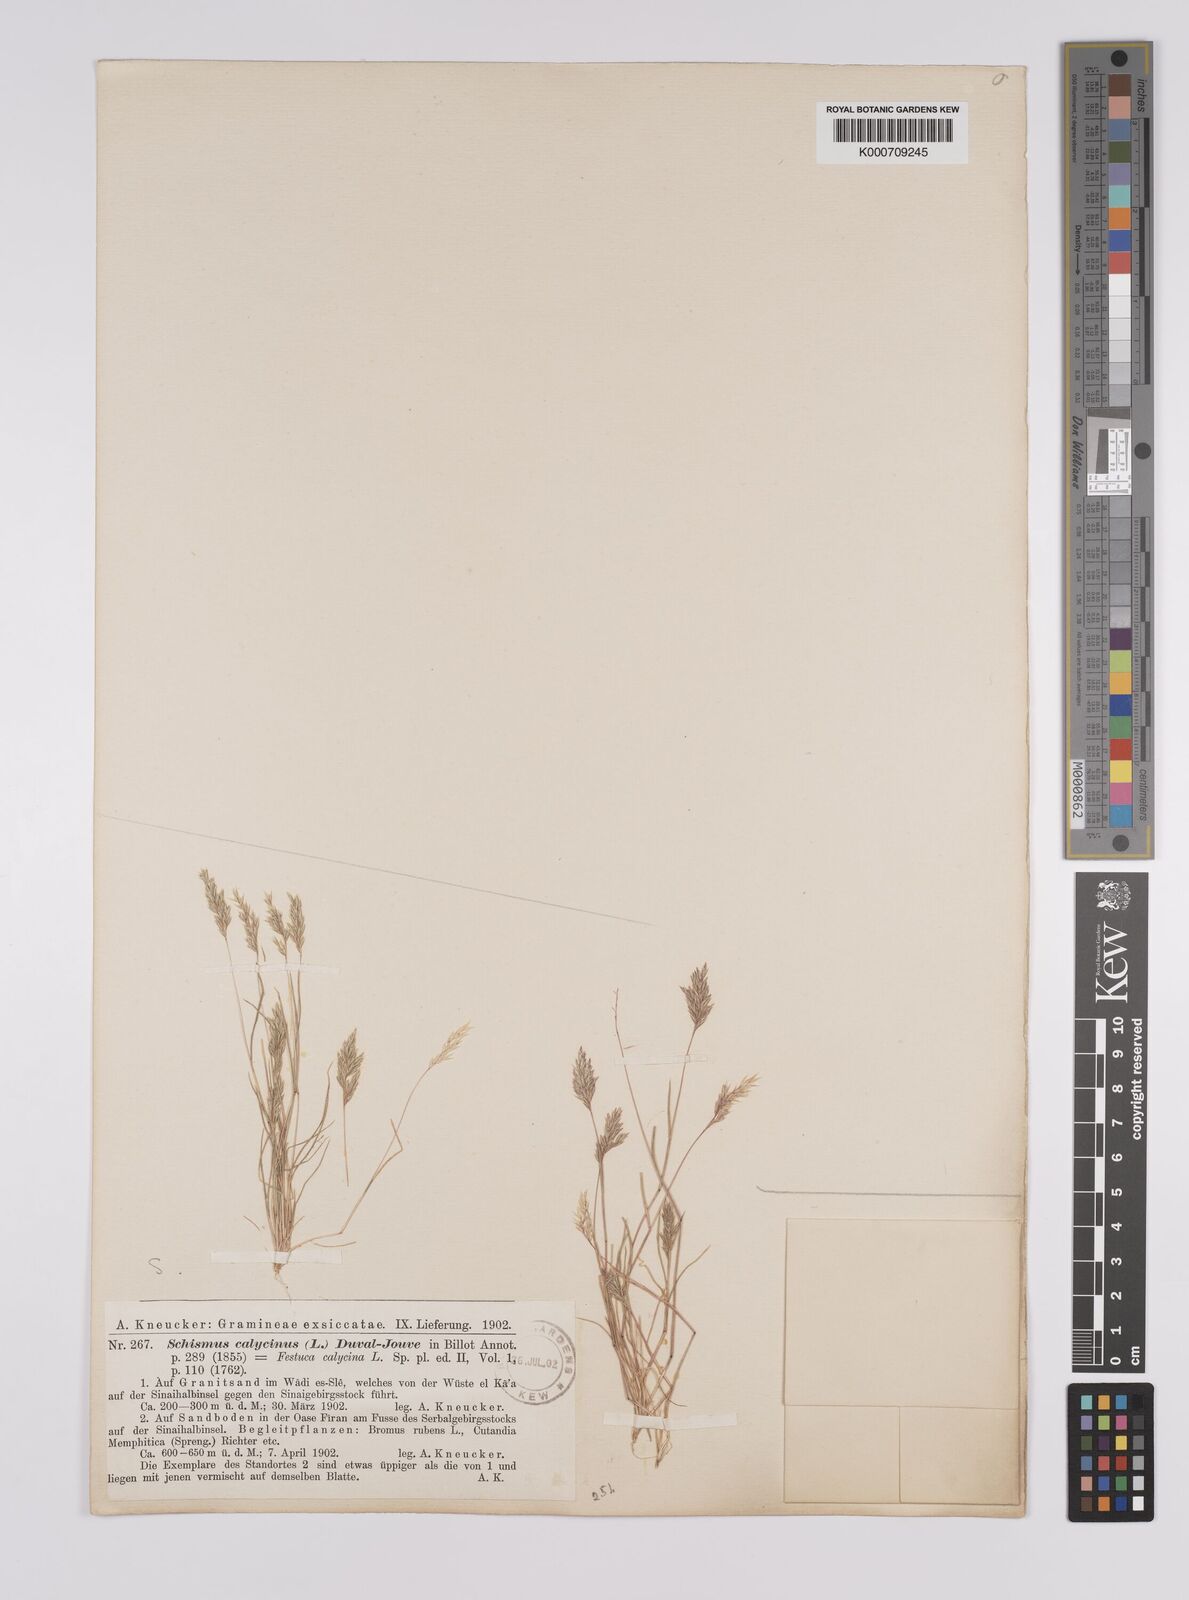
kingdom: Plantae
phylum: Tracheophyta
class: Liliopsida
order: Poales
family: Poaceae
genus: Schismus
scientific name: Schismus barbatus
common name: Kelch-grass
